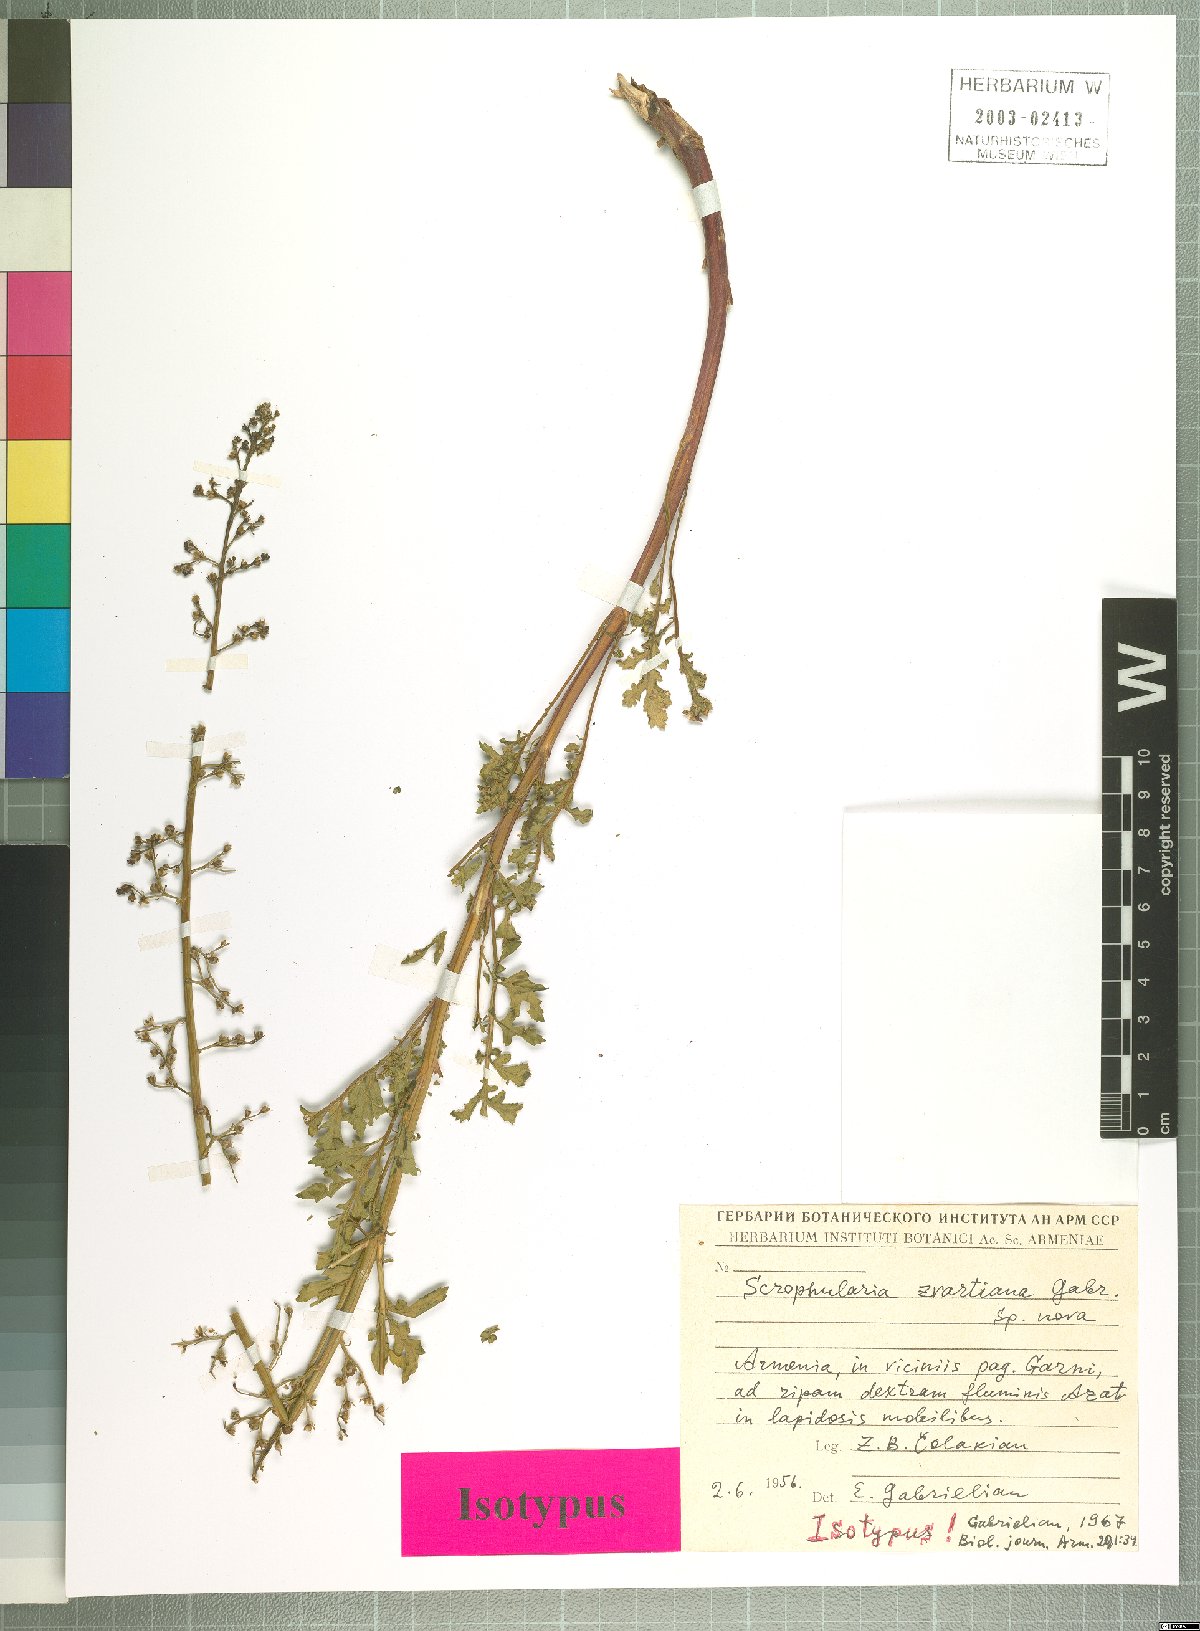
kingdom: Plantae
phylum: Tracheophyta
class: Magnoliopsida
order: Lamiales
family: Scrophulariaceae
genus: Scrophularia
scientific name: Scrophularia zvartiana
